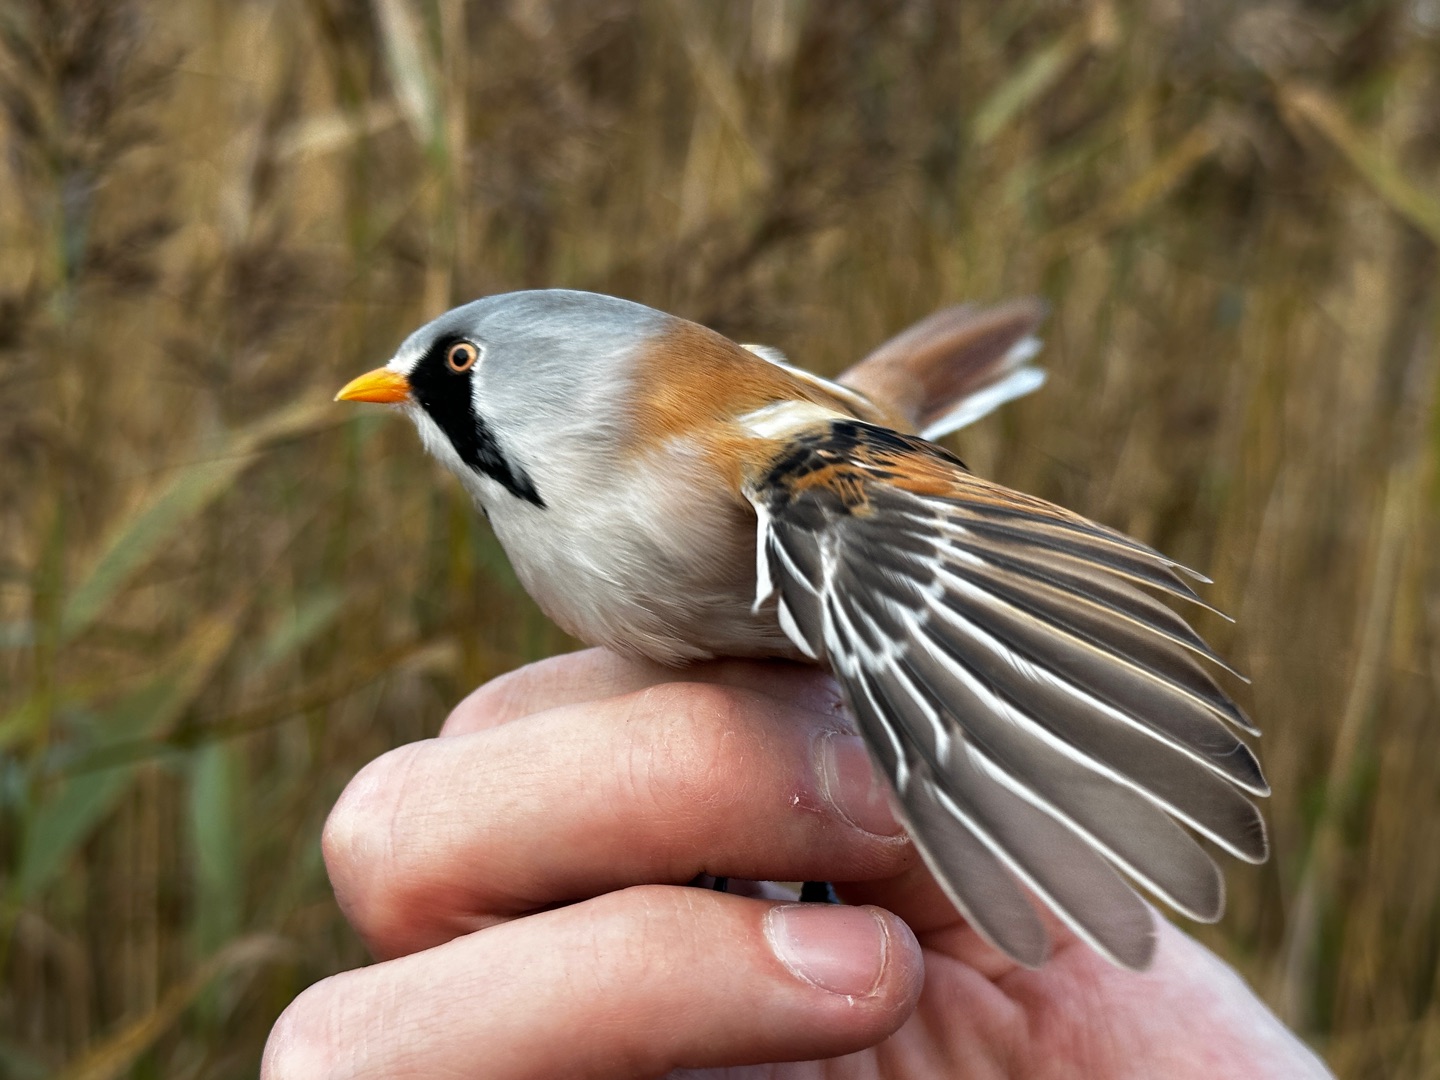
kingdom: Animalia
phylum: Chordata
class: Aves
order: Passeriformes
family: Panuridae
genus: Panurus
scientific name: Panurus biarmicus
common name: Skægmejse
